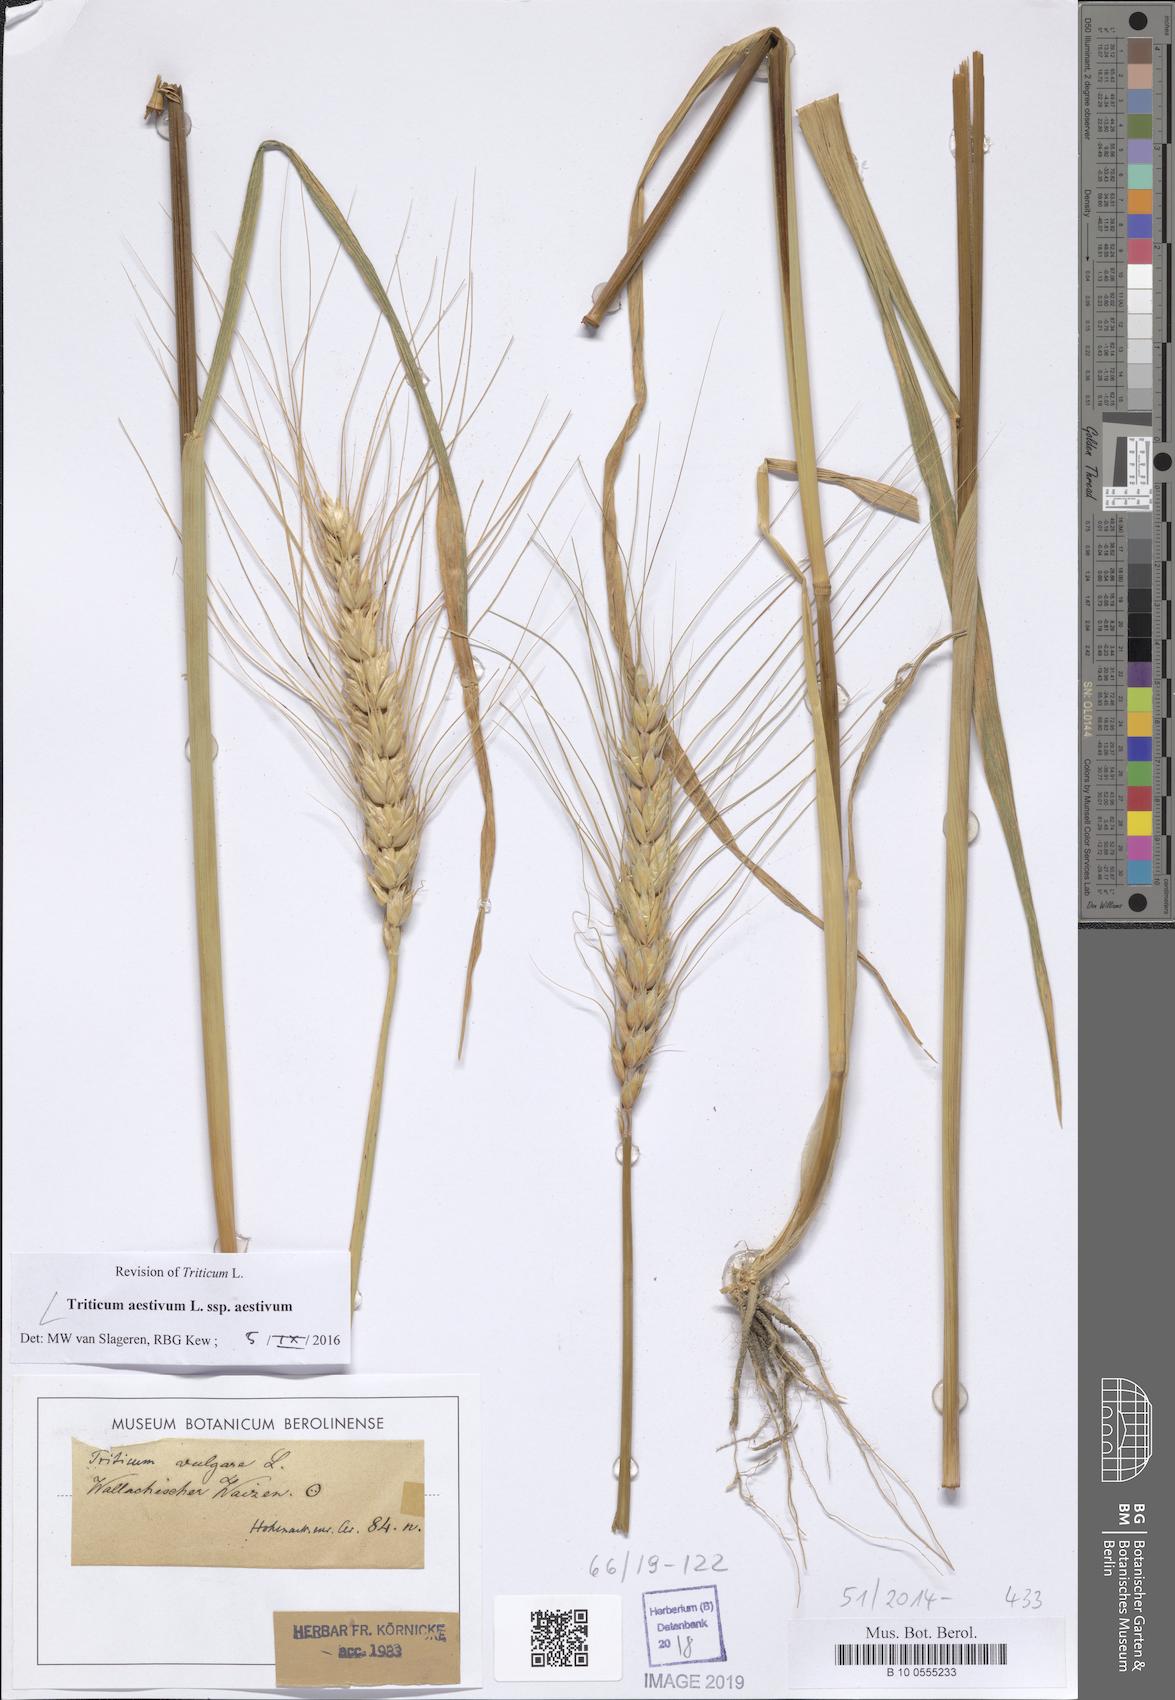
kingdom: Plantae
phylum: Tracheophyta
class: Liliopsida
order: Poales
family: Poaceae
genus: Triticum
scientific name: Triticum aestivum
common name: Common wheat
